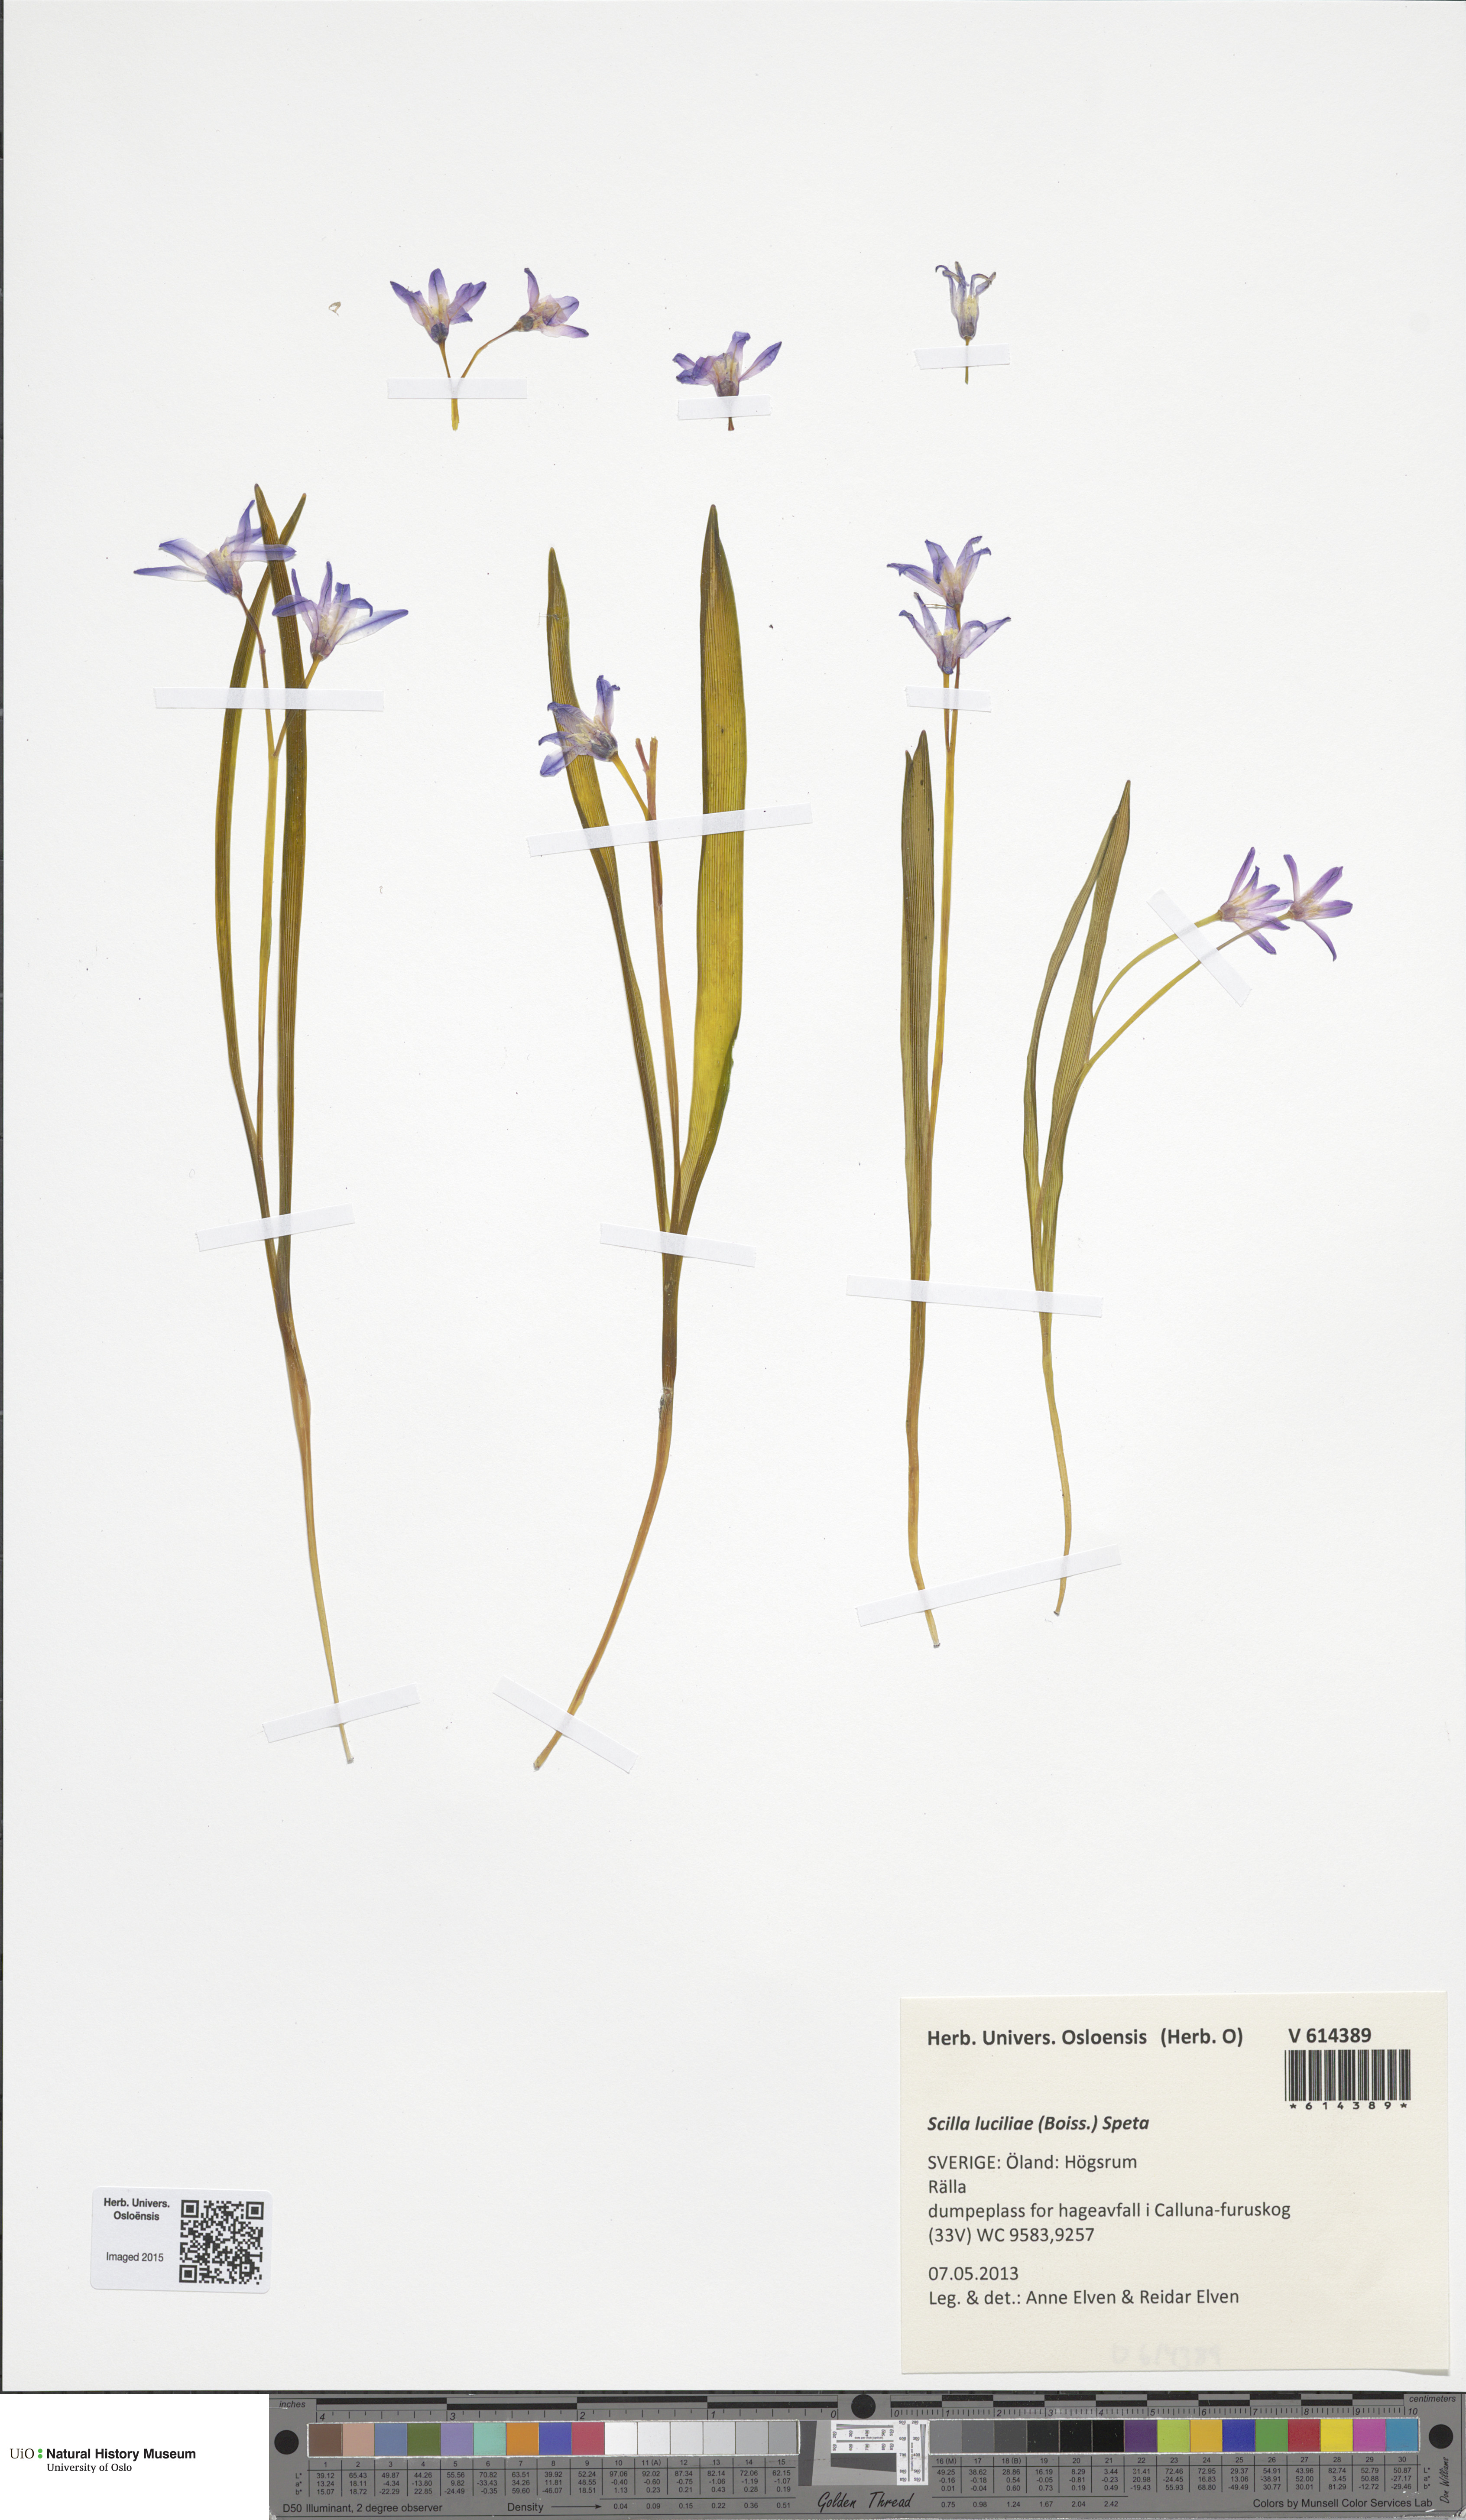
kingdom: Plantae
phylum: Tracheophyta
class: Liliopsida
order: Asparagales
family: Asparagaceae
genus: Scilla
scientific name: Scilla luciliae
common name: Boissier's glory-of-the-snow
